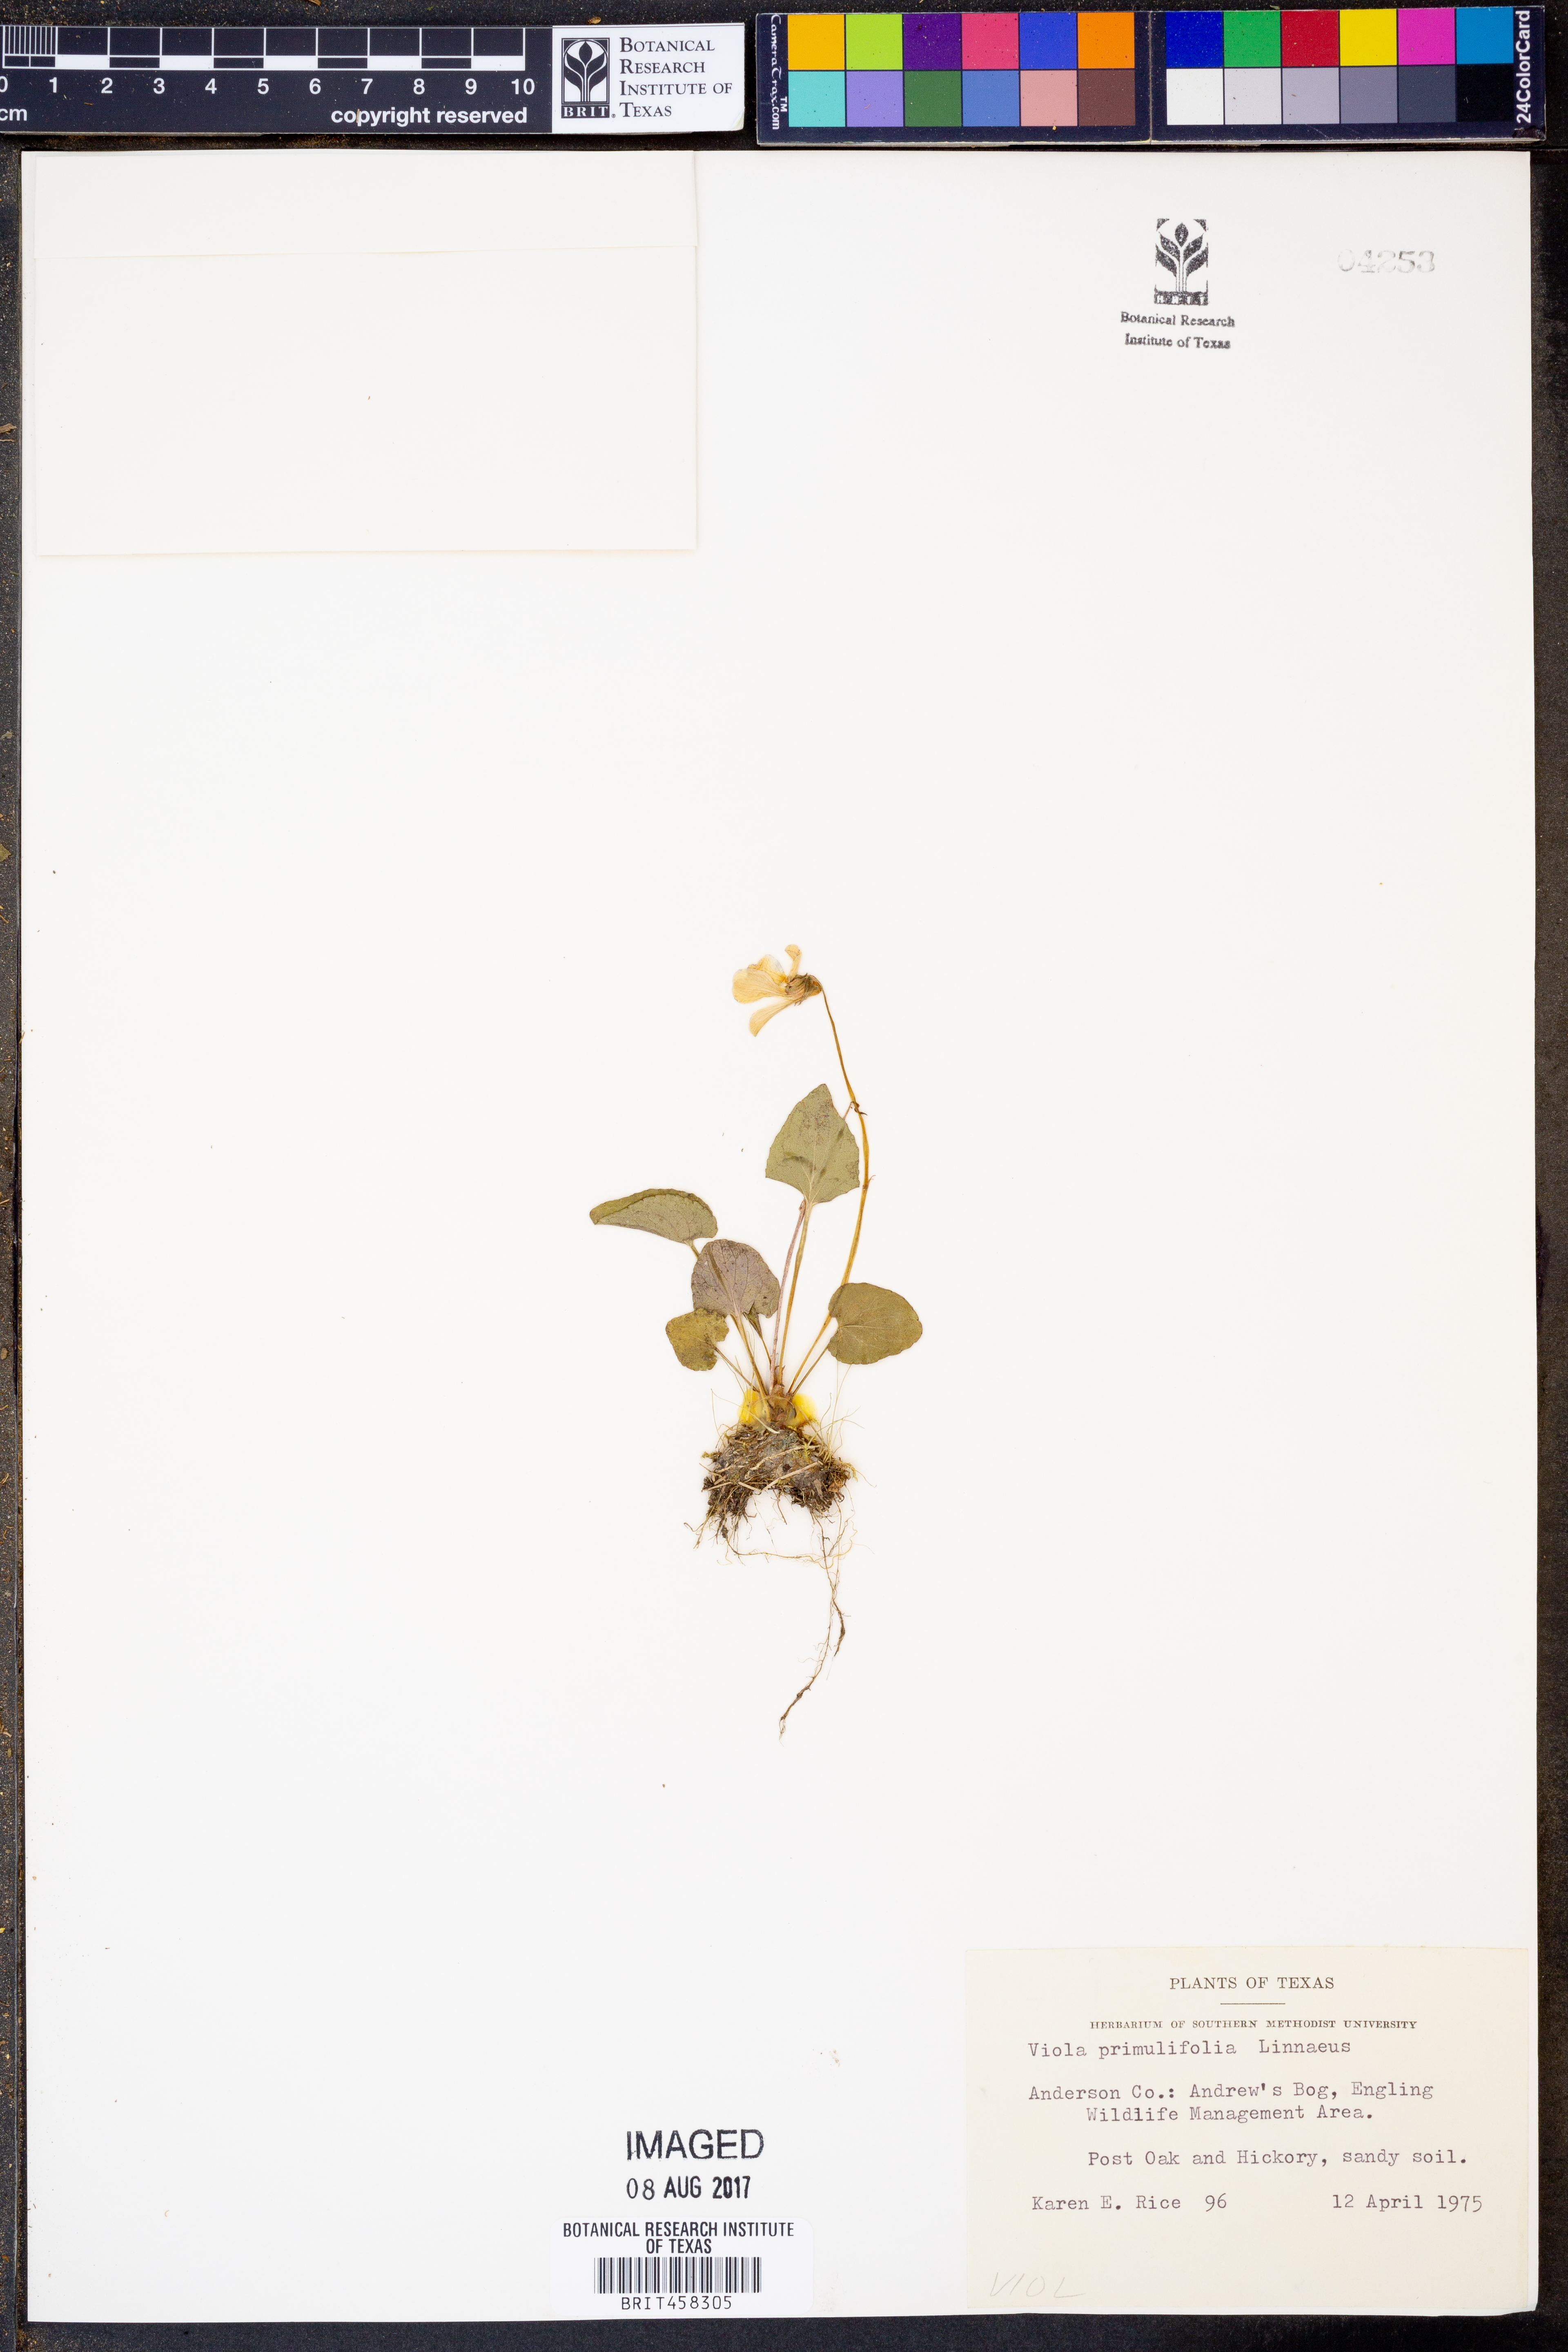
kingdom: Plantae
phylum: Tracheophyta
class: Magnoliopsida
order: Malpighiales
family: Violaceae
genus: Viola
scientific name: Viola primulifolia
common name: Primrose-leaf violet
